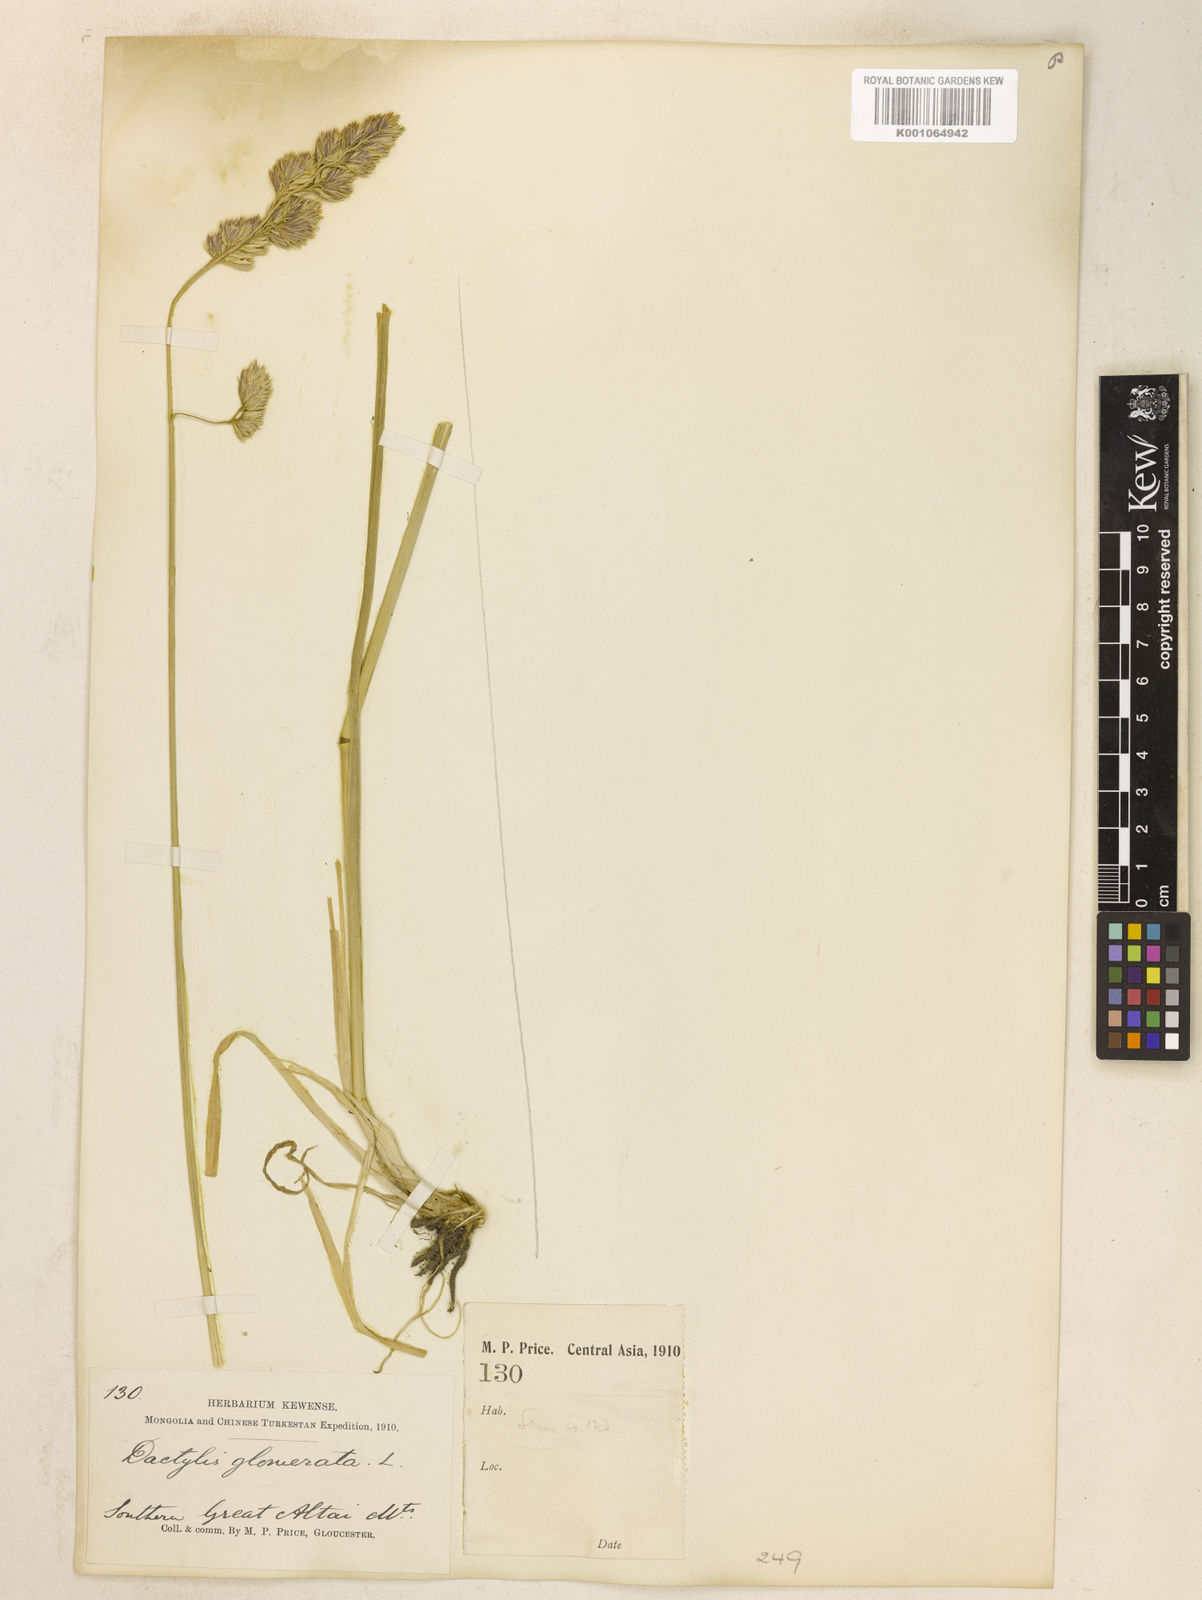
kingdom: Plantae
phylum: Tracheophyta
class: Liliopsida
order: Poales
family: Poaceae
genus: Dactylis
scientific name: Dactylis glomerata
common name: Orchardgrass
